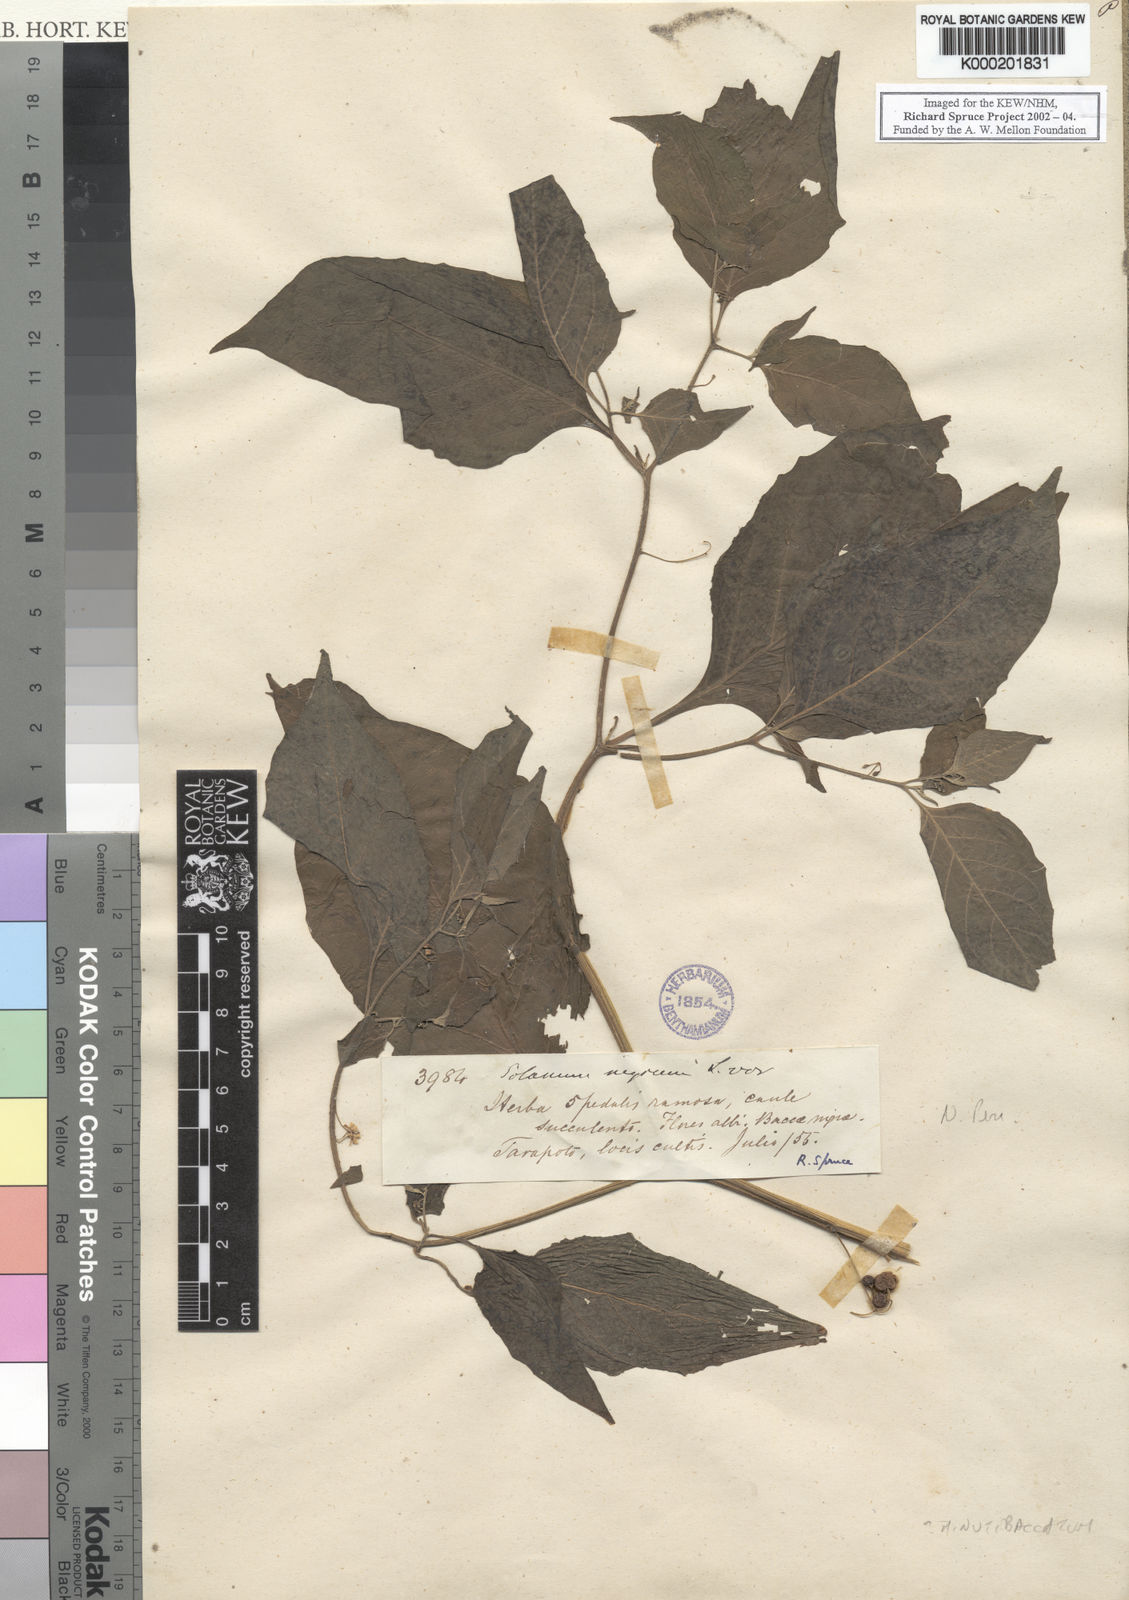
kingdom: Plantae
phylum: Tracheophyta
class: Magnoliopsida
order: Solanales
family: Solanaceae
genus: Solanum
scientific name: Solanum
